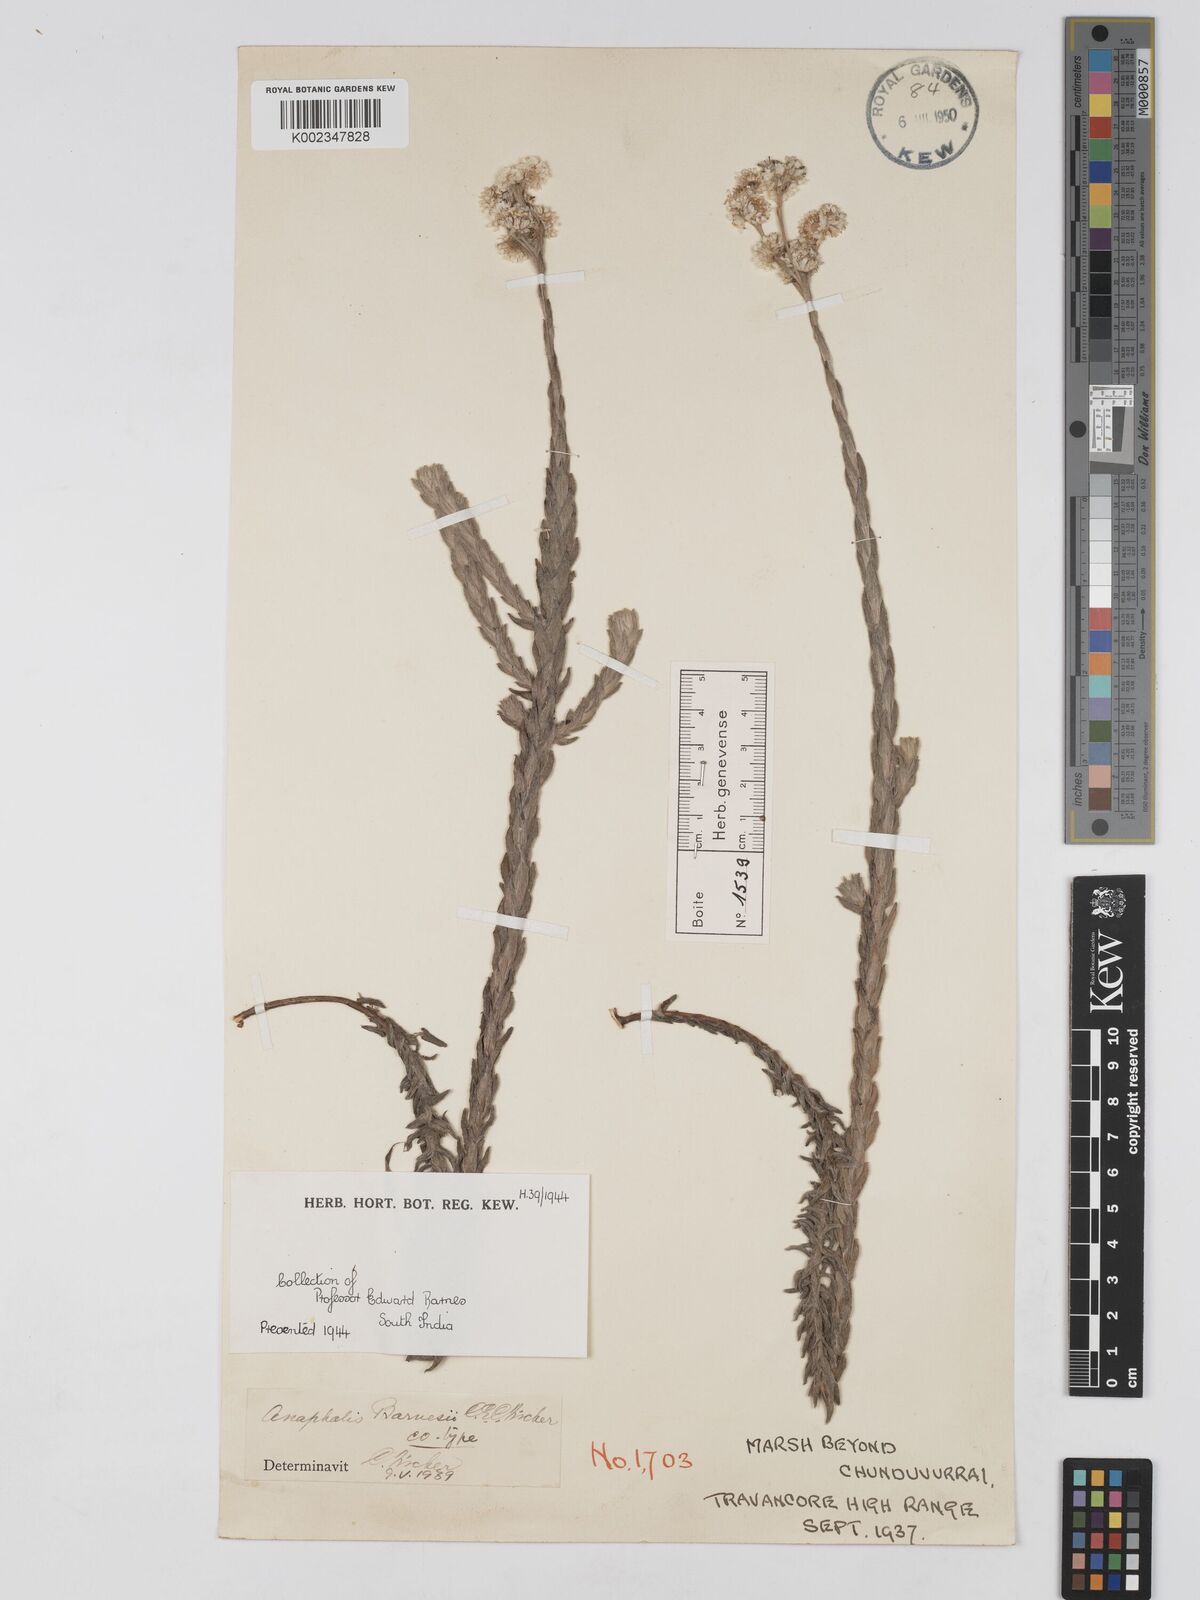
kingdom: Plantae
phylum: Tracheophyta
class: Magnoliopsida
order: Asterales
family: Asteraceae
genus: Anaphalis
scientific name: Anaphalis barnesii
